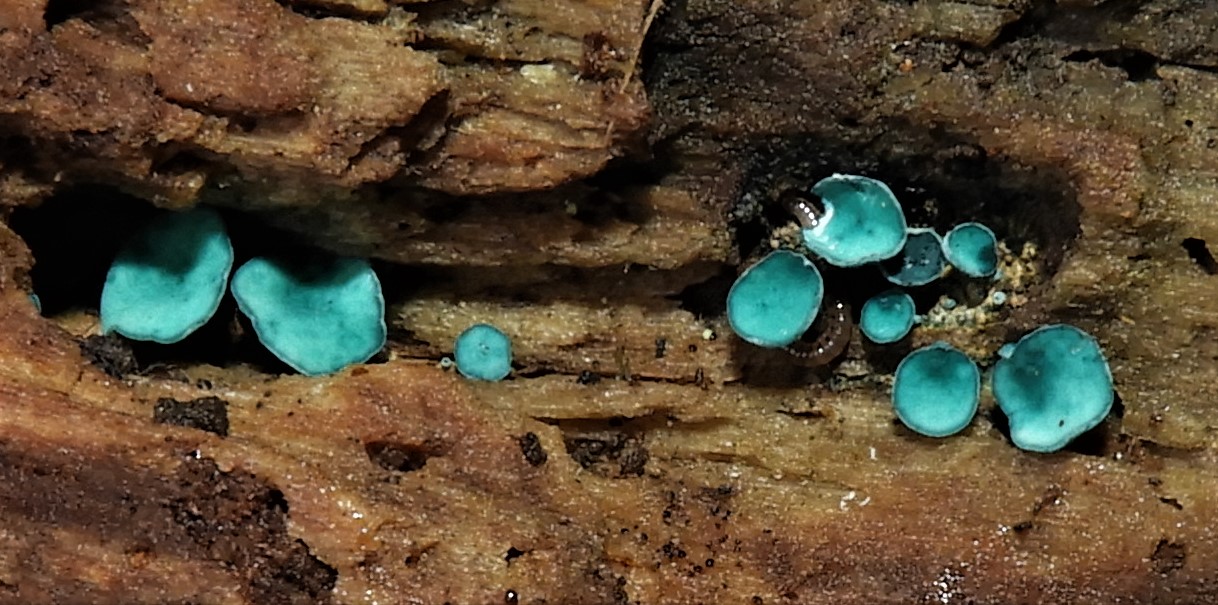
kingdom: Fungi
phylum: Ascomycota
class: Leotiomycetes
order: Helotiales
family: Chlorociboriaceae
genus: Chlorociboria
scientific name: Chlorociboria aeruginascens
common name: almindelig grønskive
